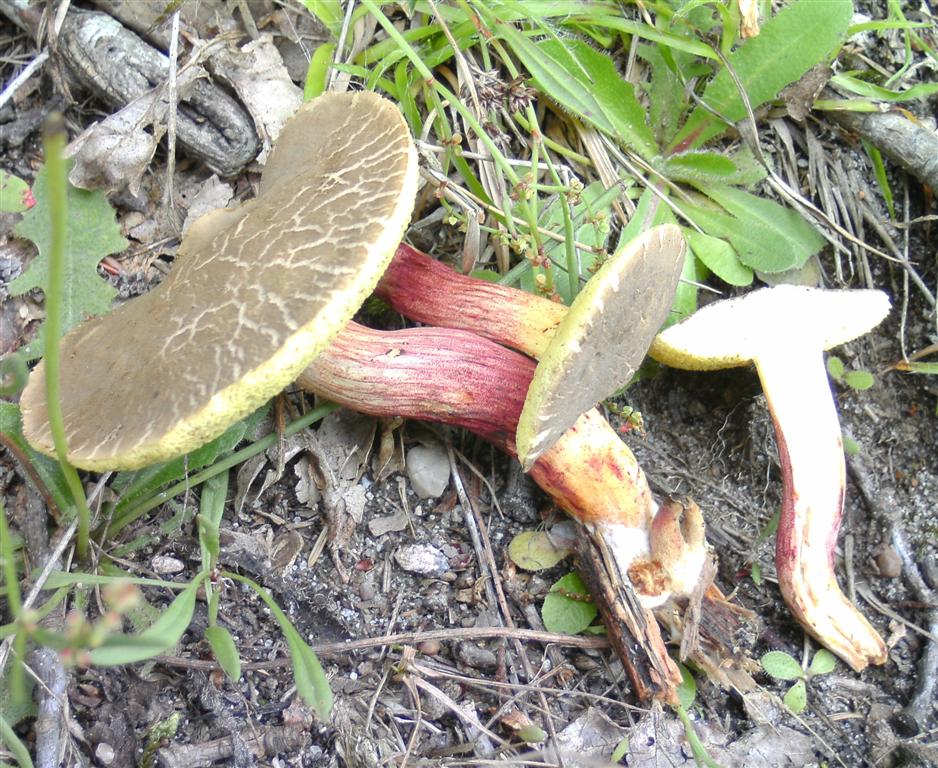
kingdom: Fungi
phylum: Basidiomycota
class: Agaricomycetes
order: Boletales
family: Boletaceae
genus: Xerocomellus
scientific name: Xerocomellus chrysenteron
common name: rødsprukken rørhat
